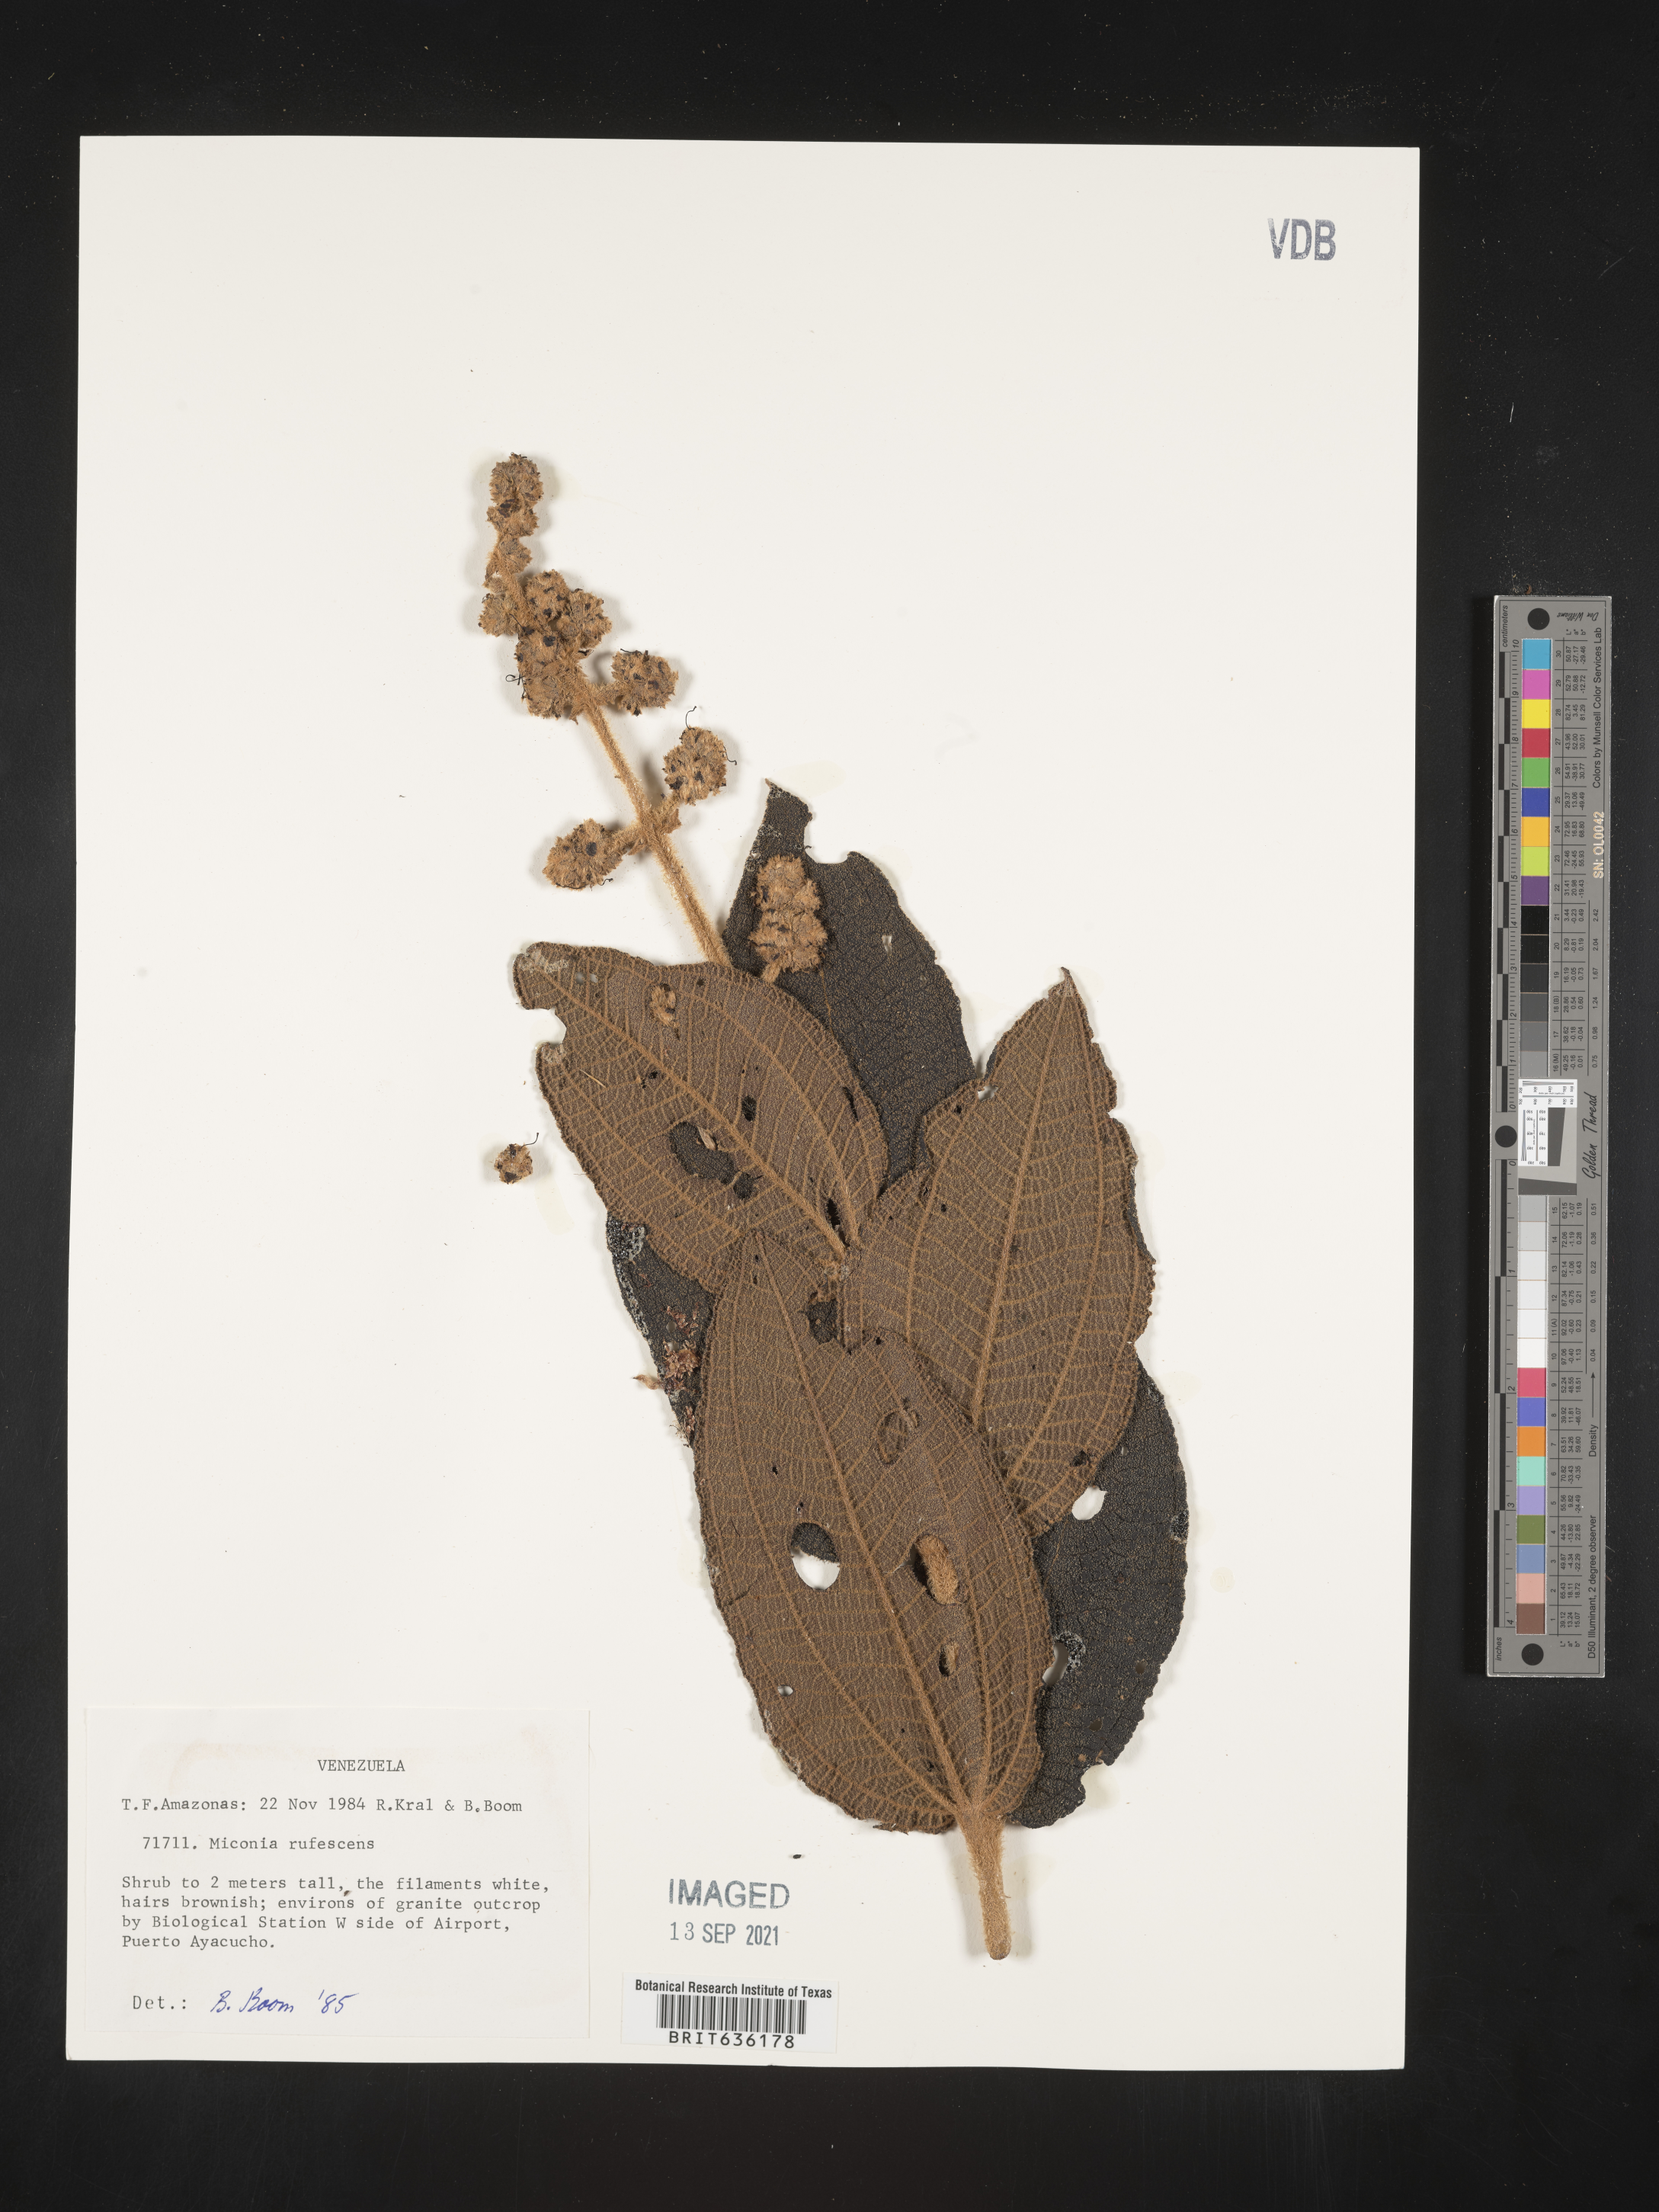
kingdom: Plantae
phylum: Tracheophyta
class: Magnoliopsida
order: Myrtales
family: Melastomataceae
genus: Miconia
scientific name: Miconia
